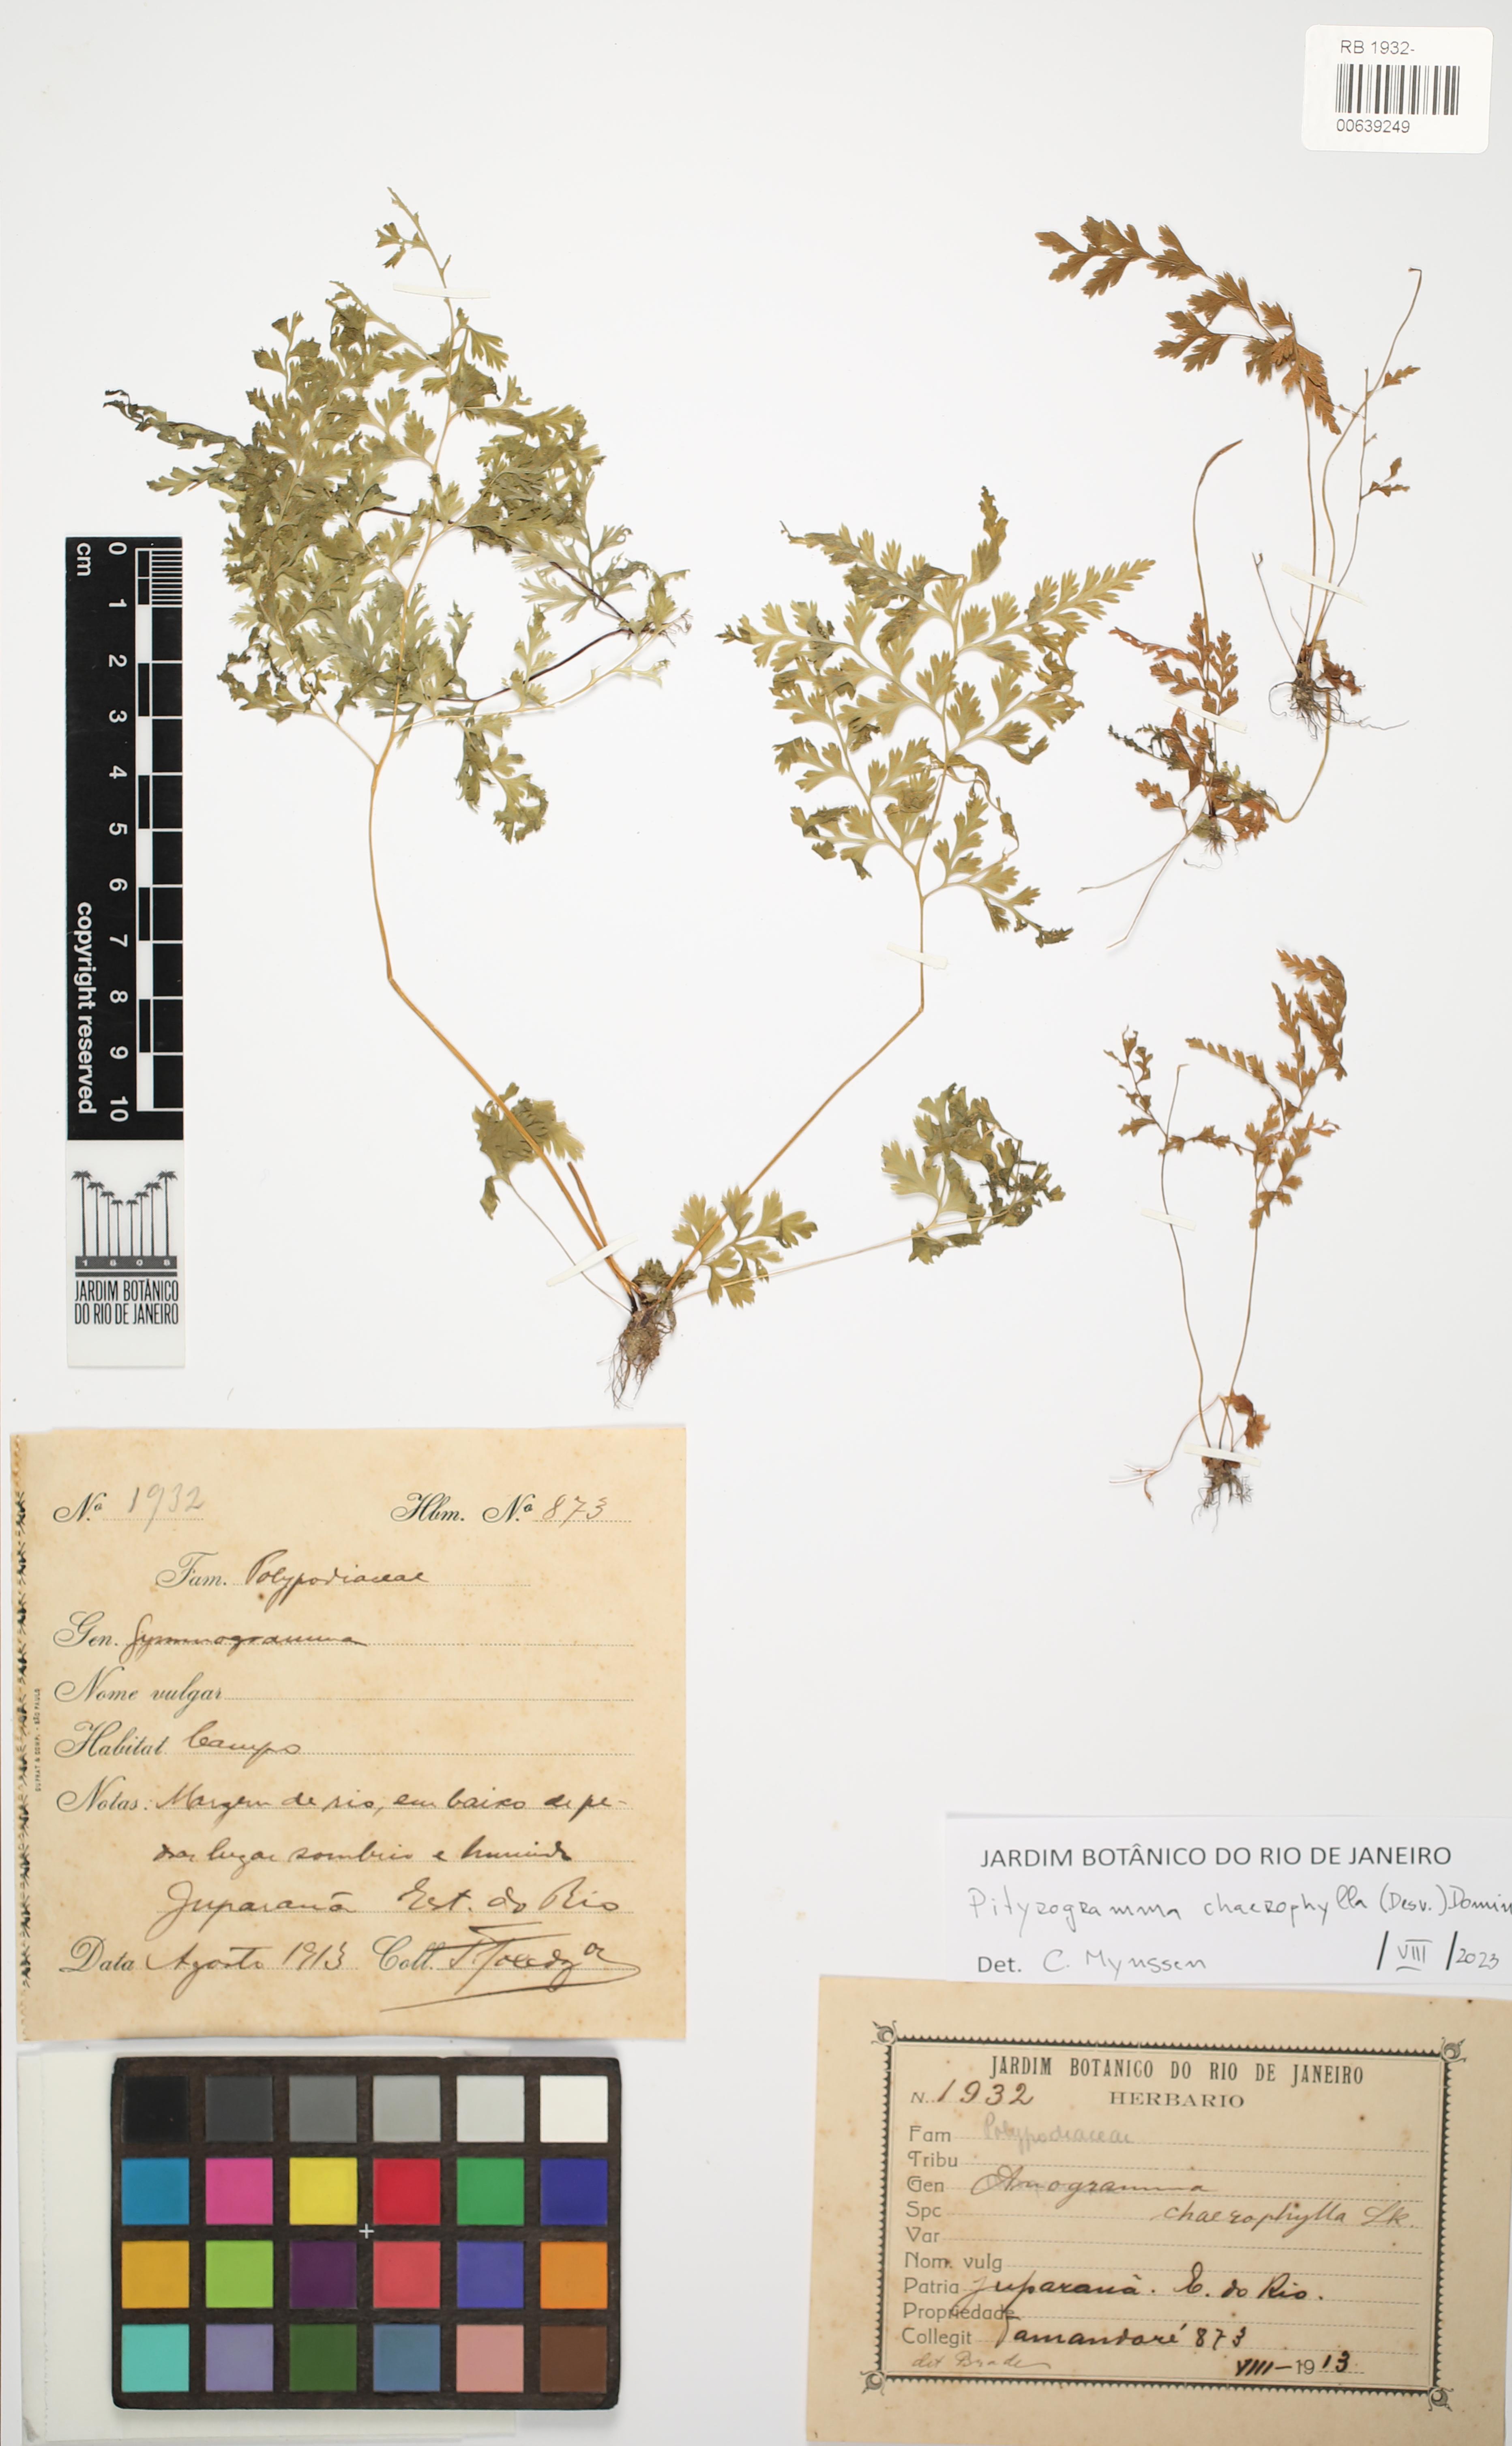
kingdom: Plantae
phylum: Tracheophyta
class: Polypodiopsida
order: Polypodiales
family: Pteridaceae
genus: Gastoniella
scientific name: Gastoniella chaerophylla
